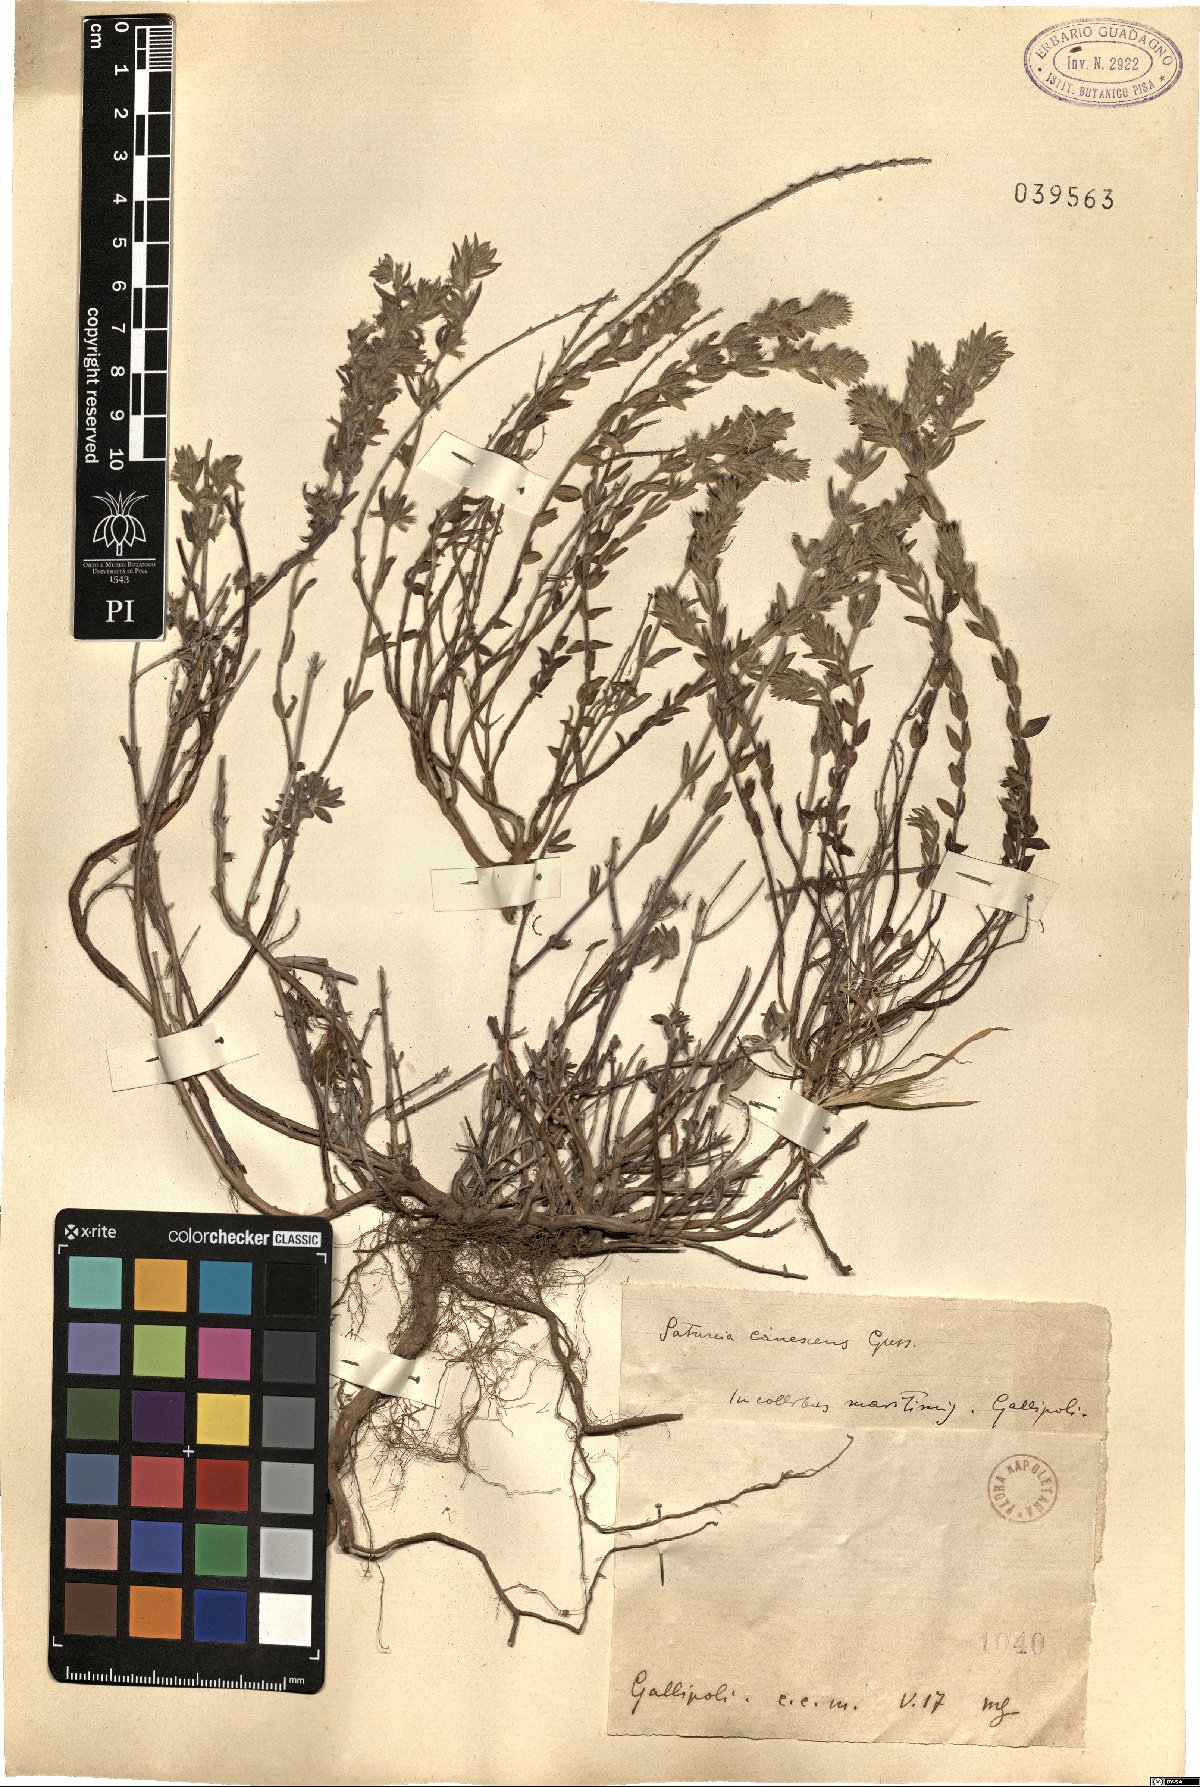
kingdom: Plantae
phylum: Tracheophyta
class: Magnoliopsida
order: Lamiales
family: Lamiaceae
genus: Micromeria
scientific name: Micromeria graeca
